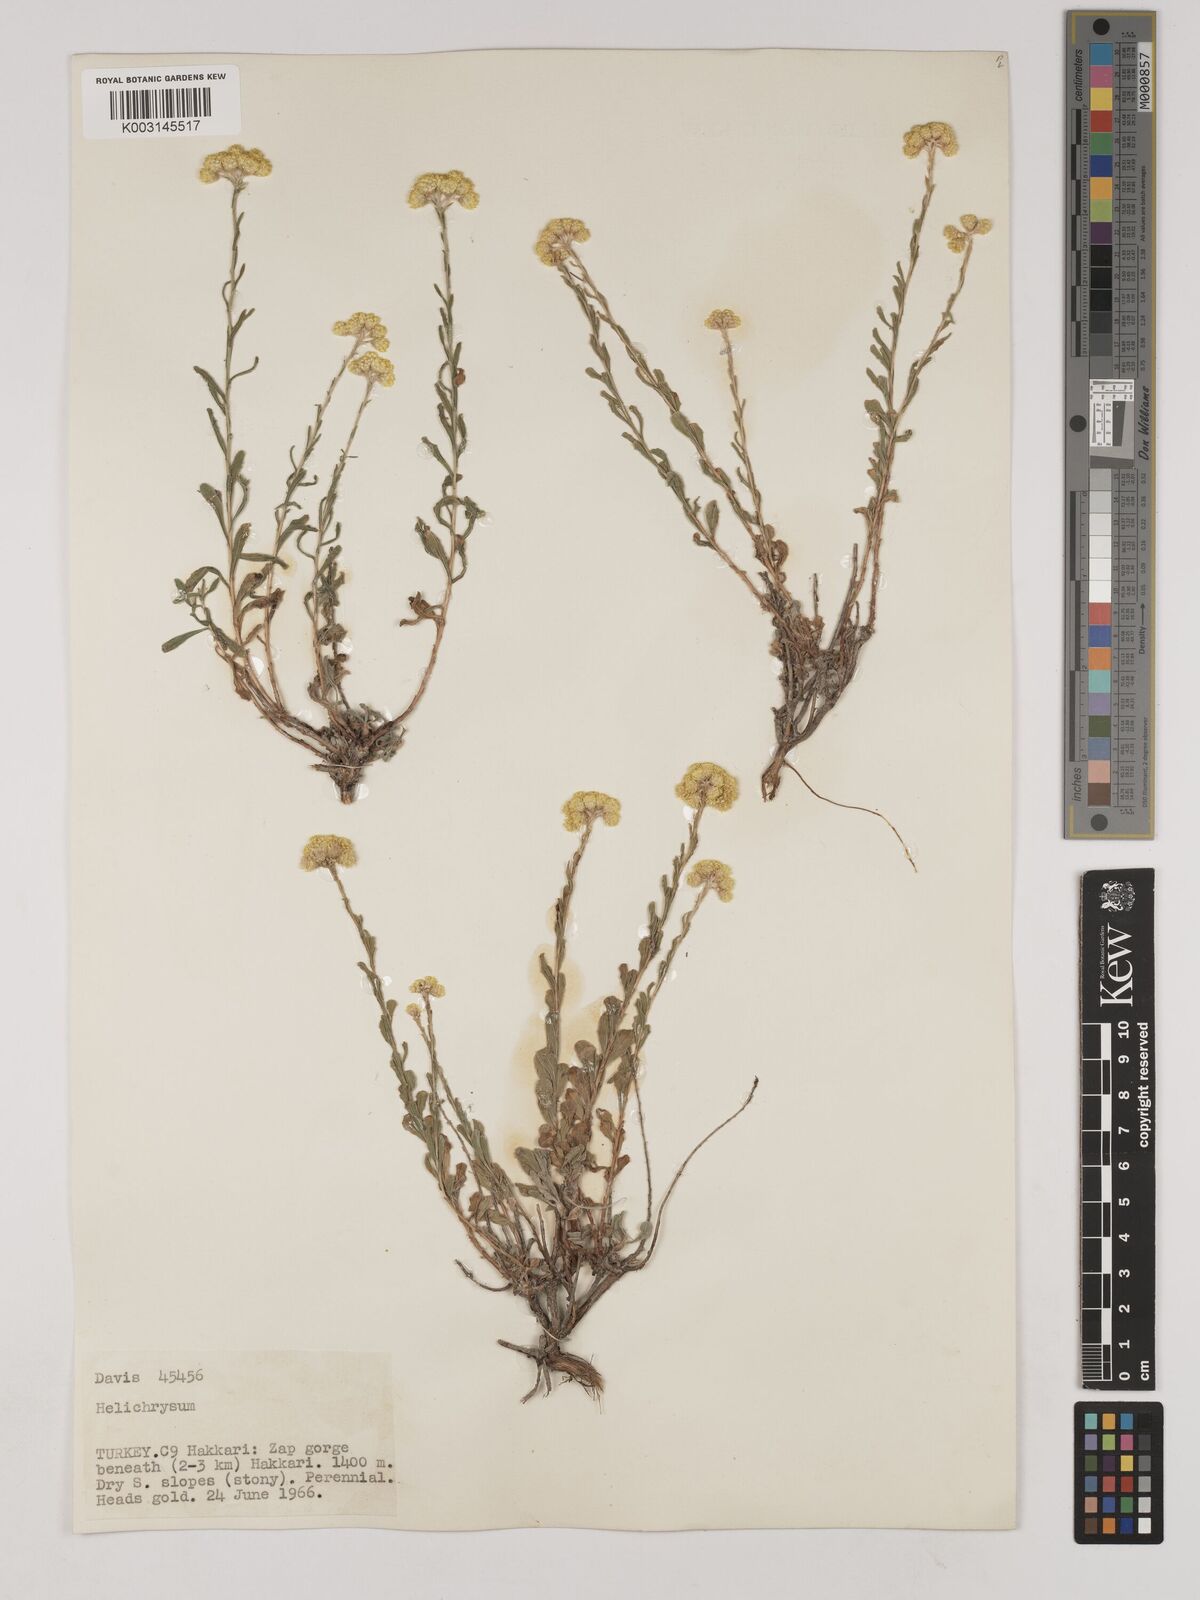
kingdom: Plantae
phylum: Tracheophyta
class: Magnoliopsida
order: Asterales
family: Asteraceae
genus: Helichrysum
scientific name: Helichrysum araxinum
